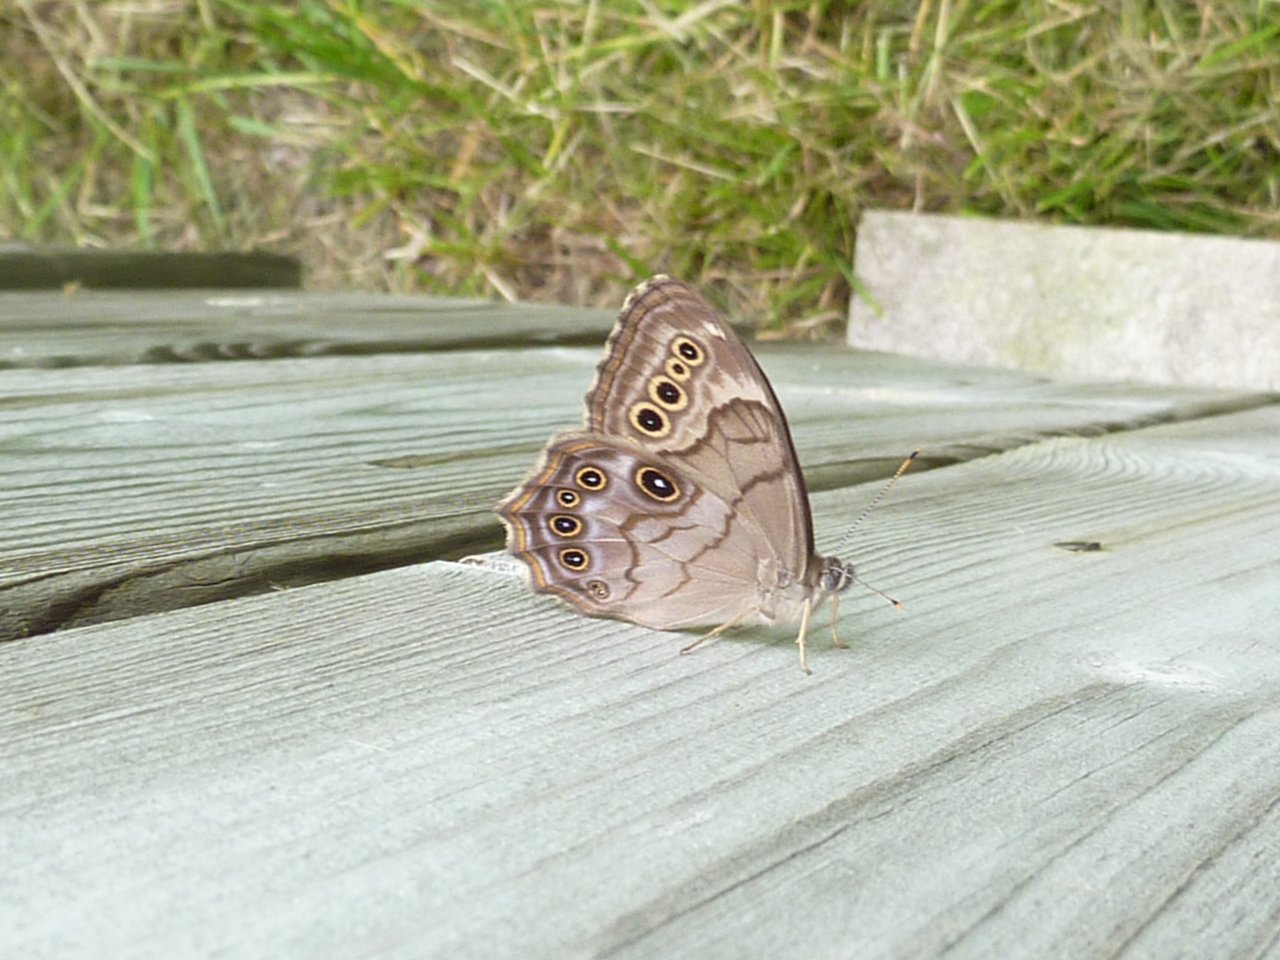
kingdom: Animalia
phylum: Arthropoda
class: Insecta
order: Lepidoptera
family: Nymphalidae
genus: Lethe
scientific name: Lethe anthedon
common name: Northern Pearly-Eye
